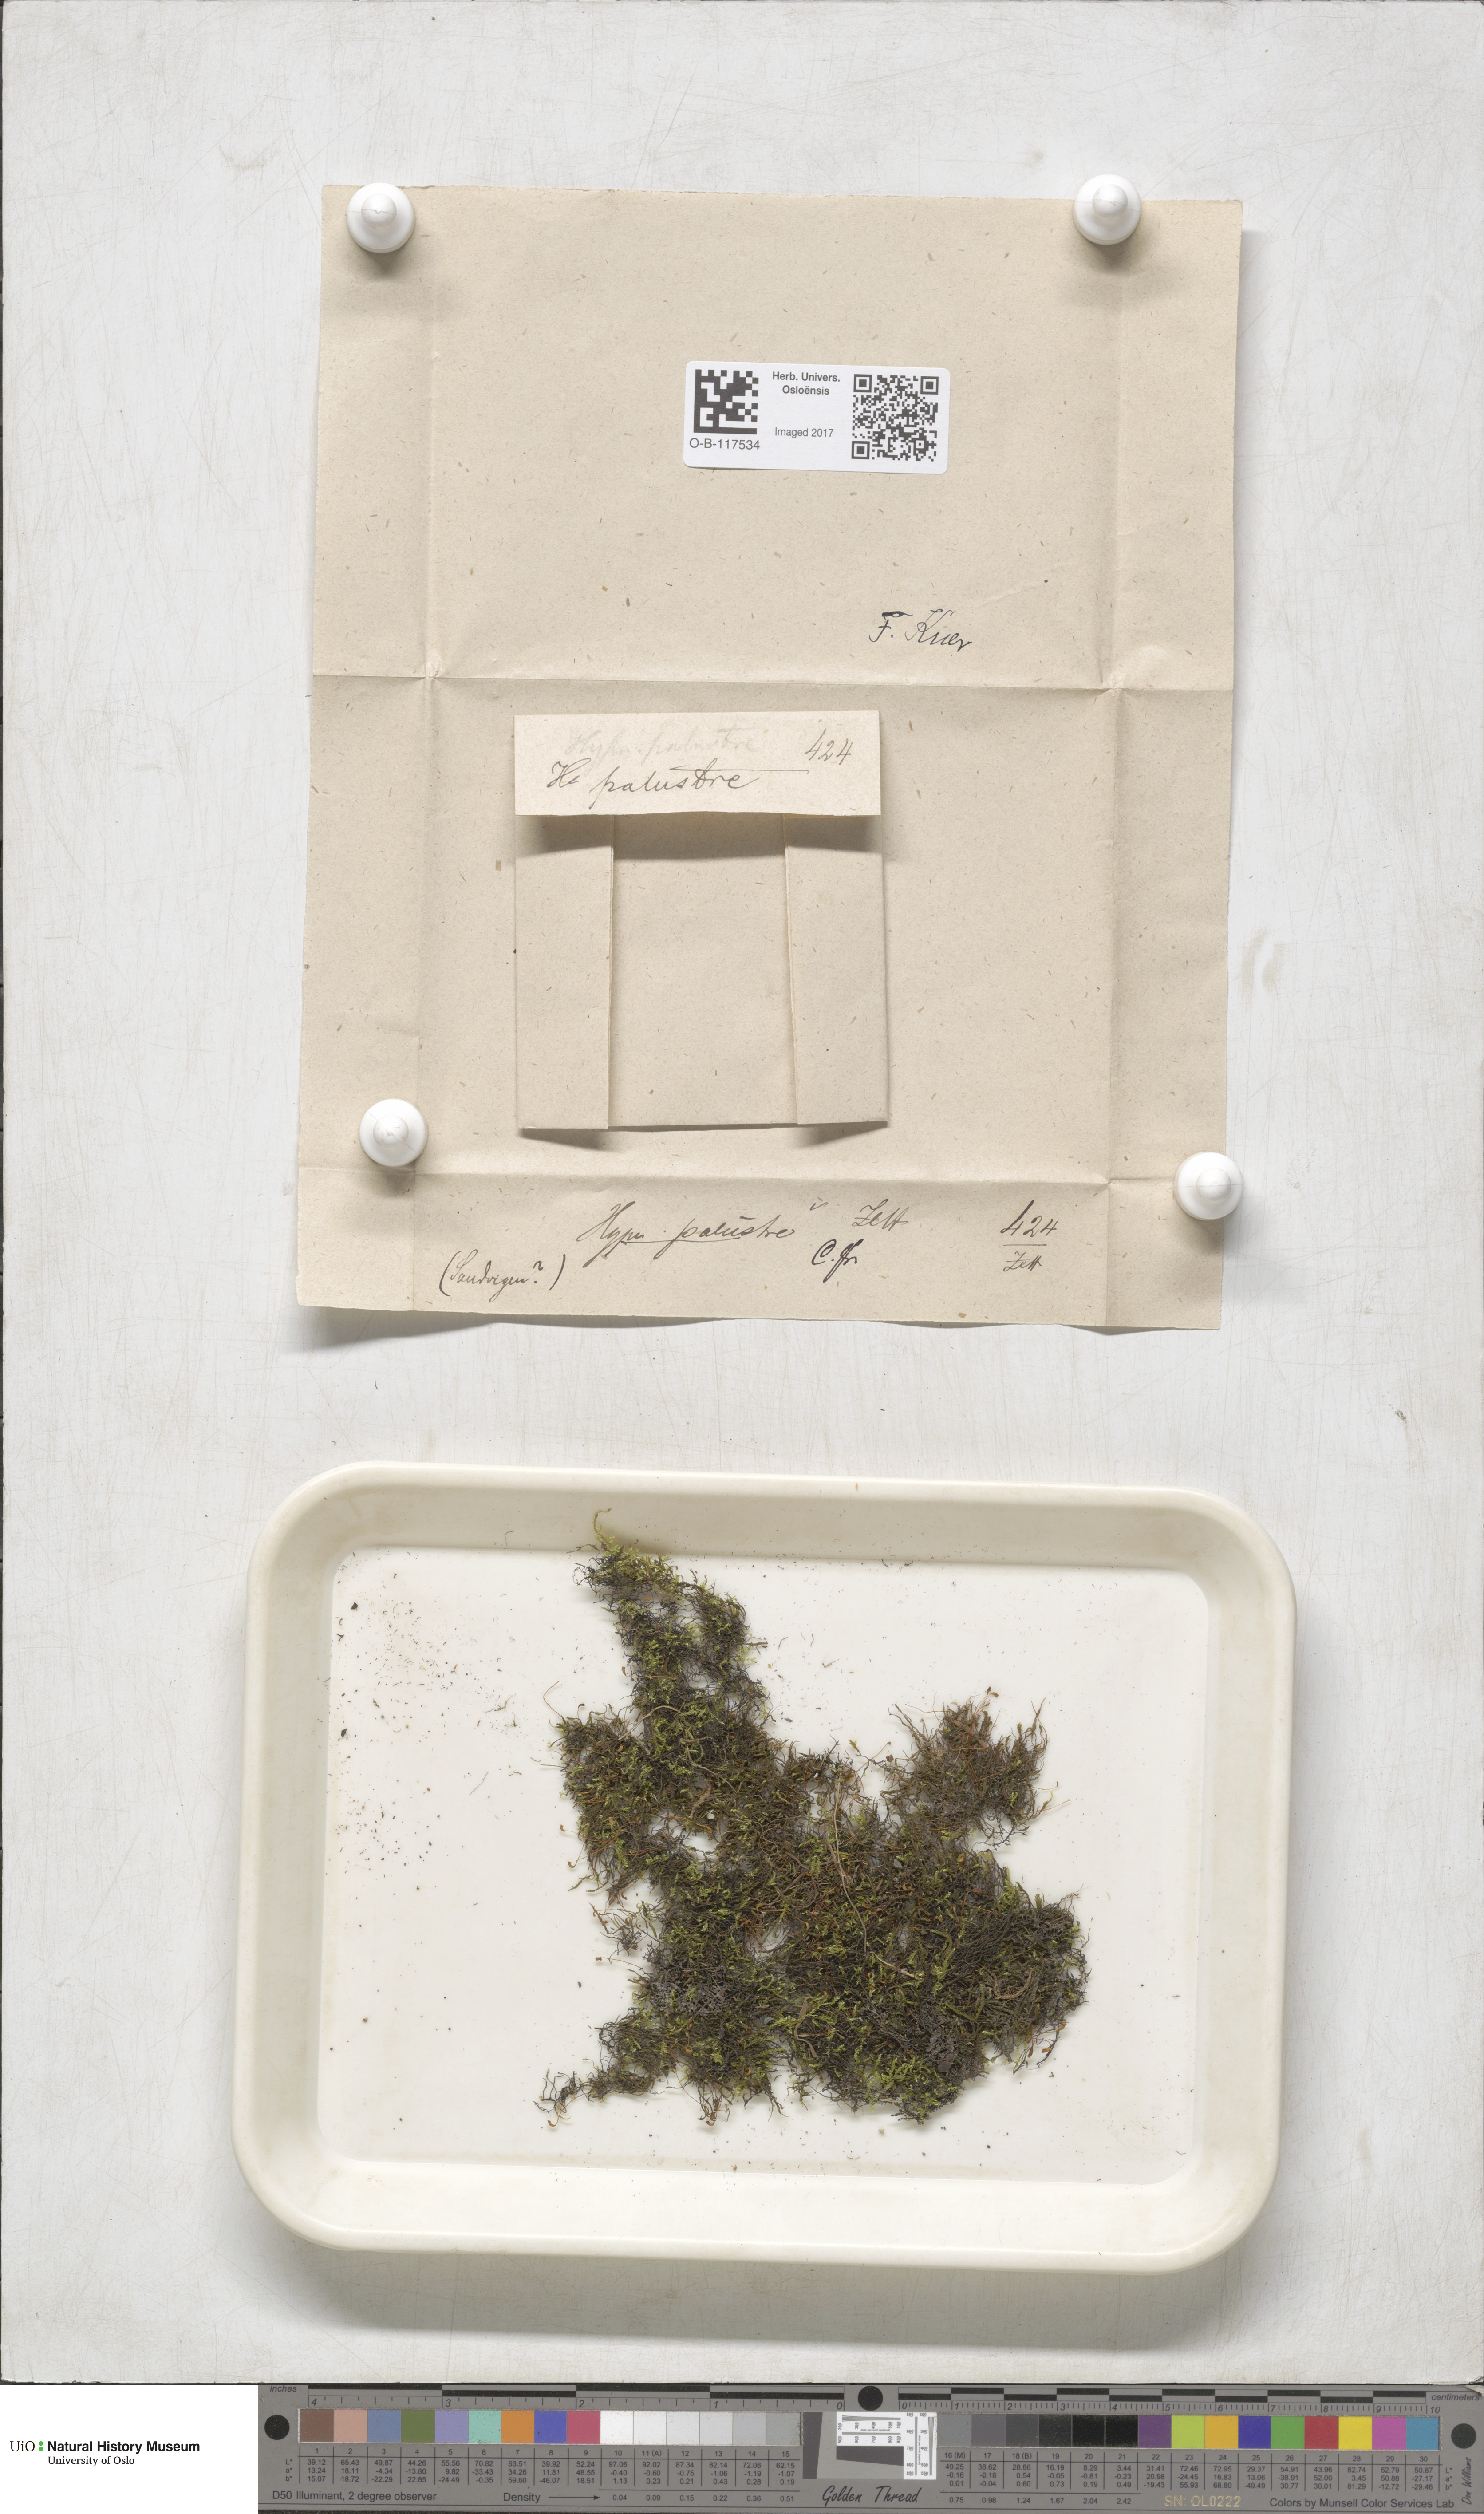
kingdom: Plantae
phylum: Bryophyta
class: Bryopsida
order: Hypnales
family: Amblystegiaceae
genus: Hygrohypnum
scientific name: Hygrohypnum luridum
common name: Drab brook moss
